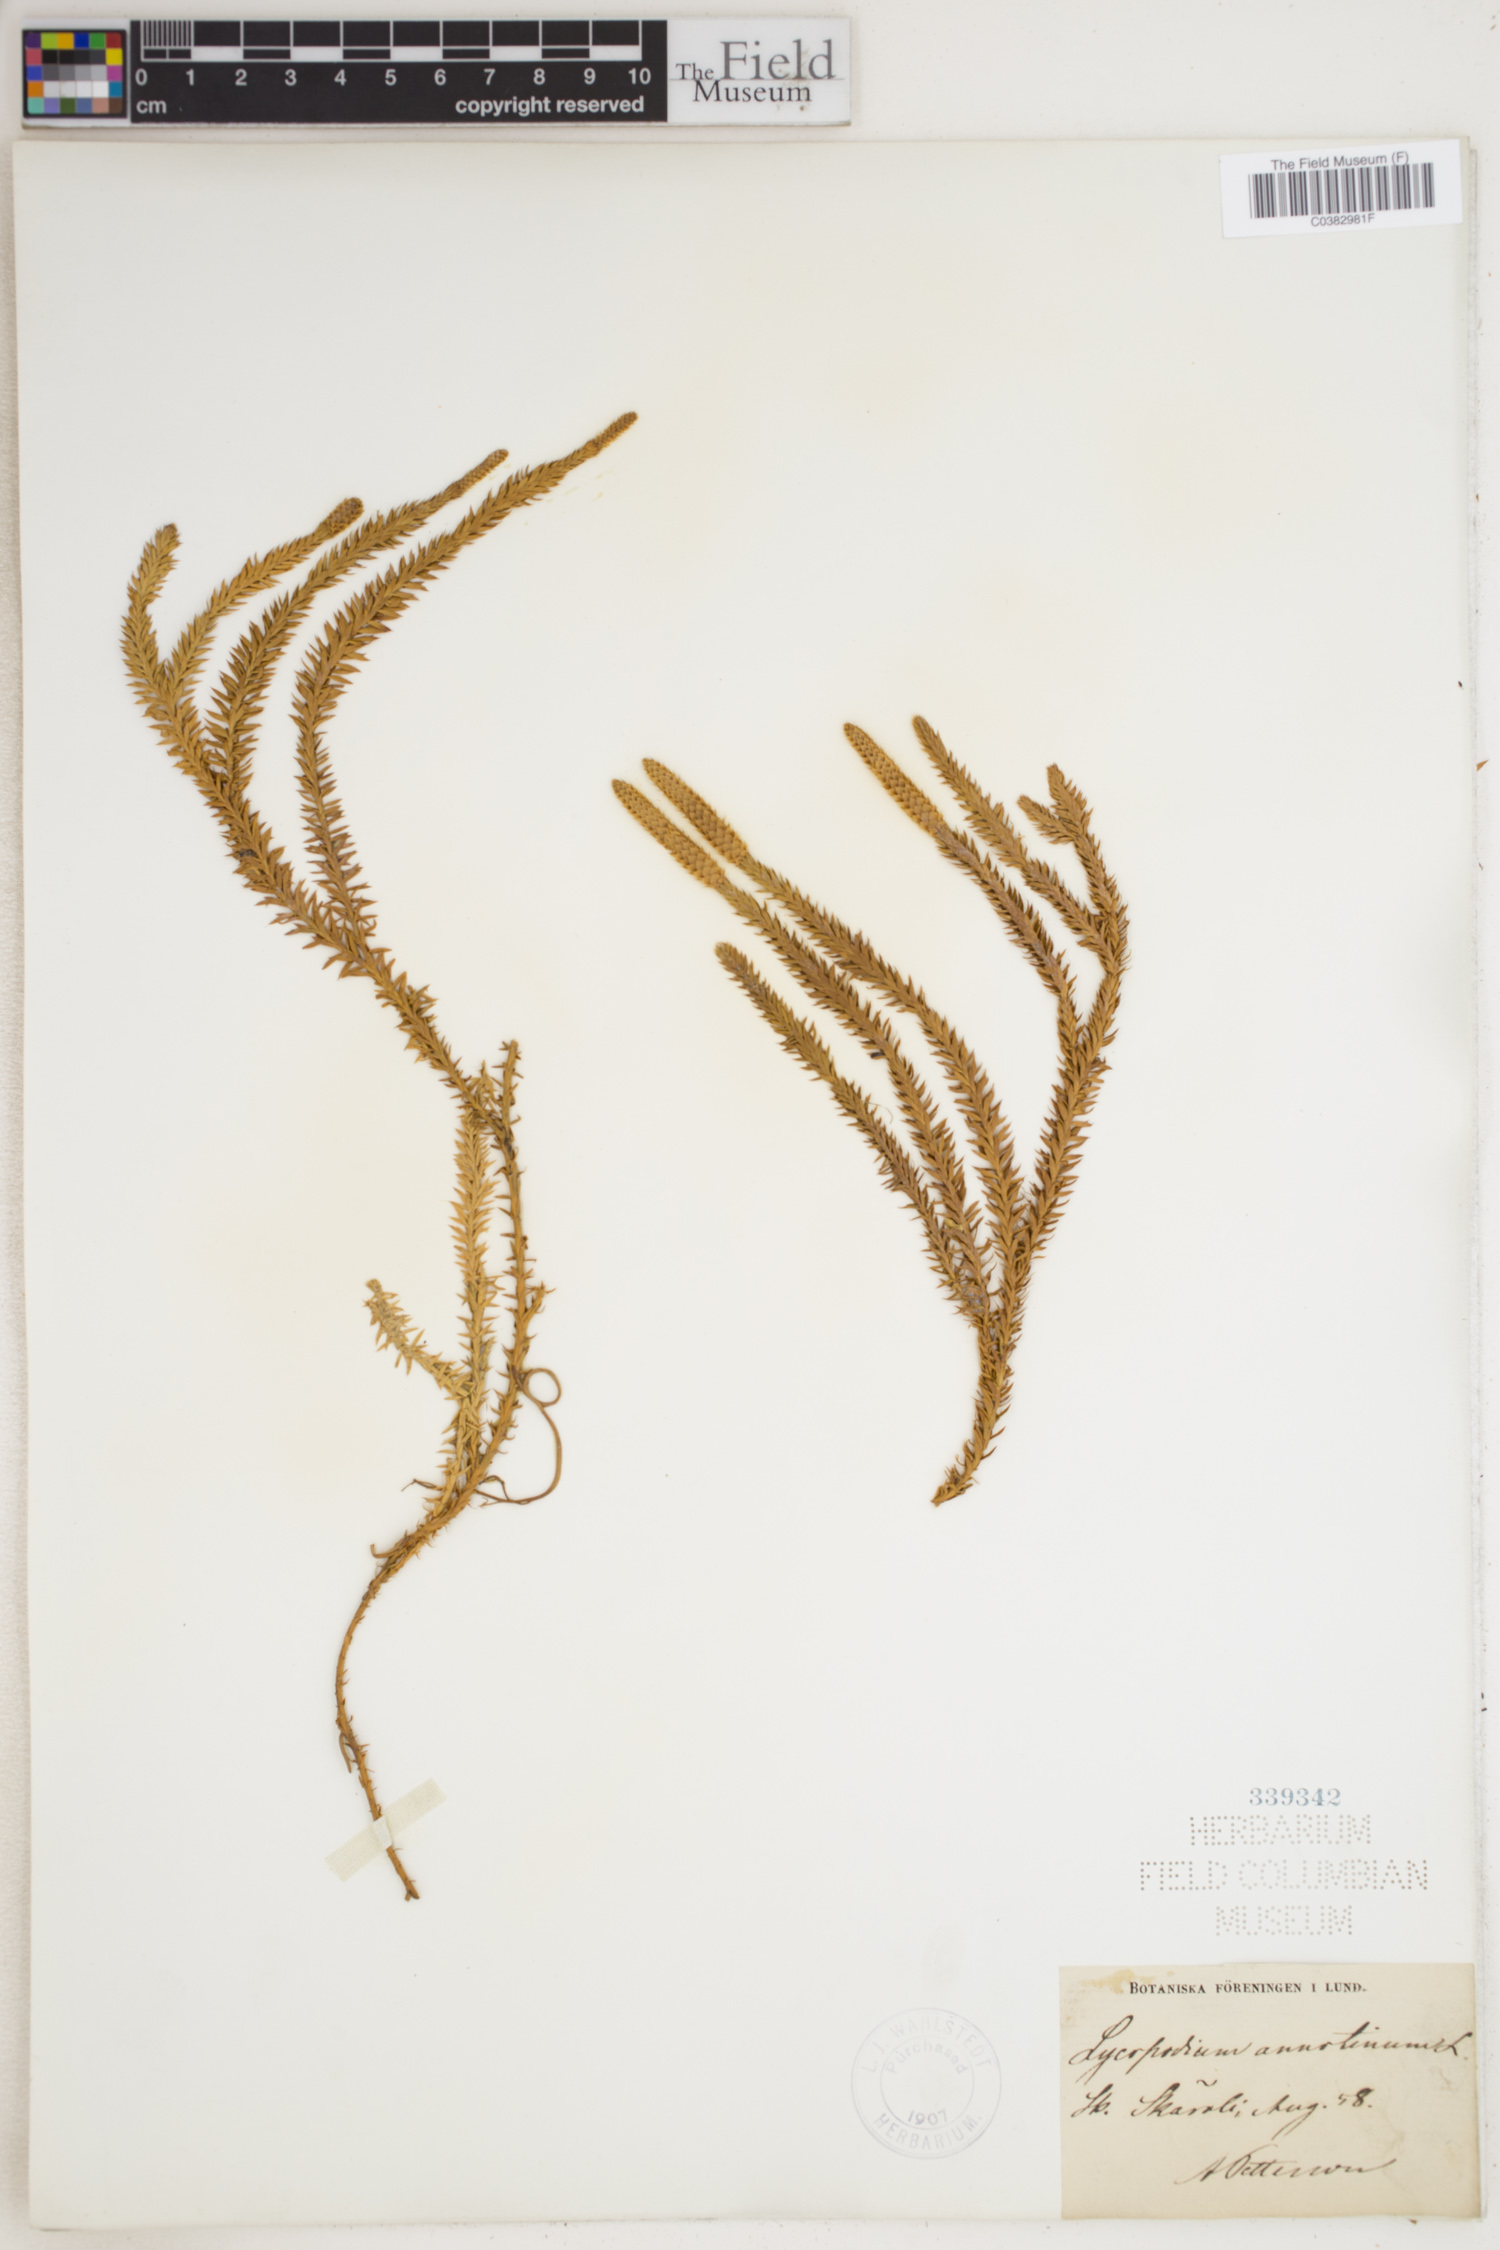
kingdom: Plantae
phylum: Tracheophyta
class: Lycopodiopsida
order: Lycopodiales
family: Lycopodiaceae
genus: Spinulum
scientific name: Spinulum annotinum
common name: Interrupted club-moss
